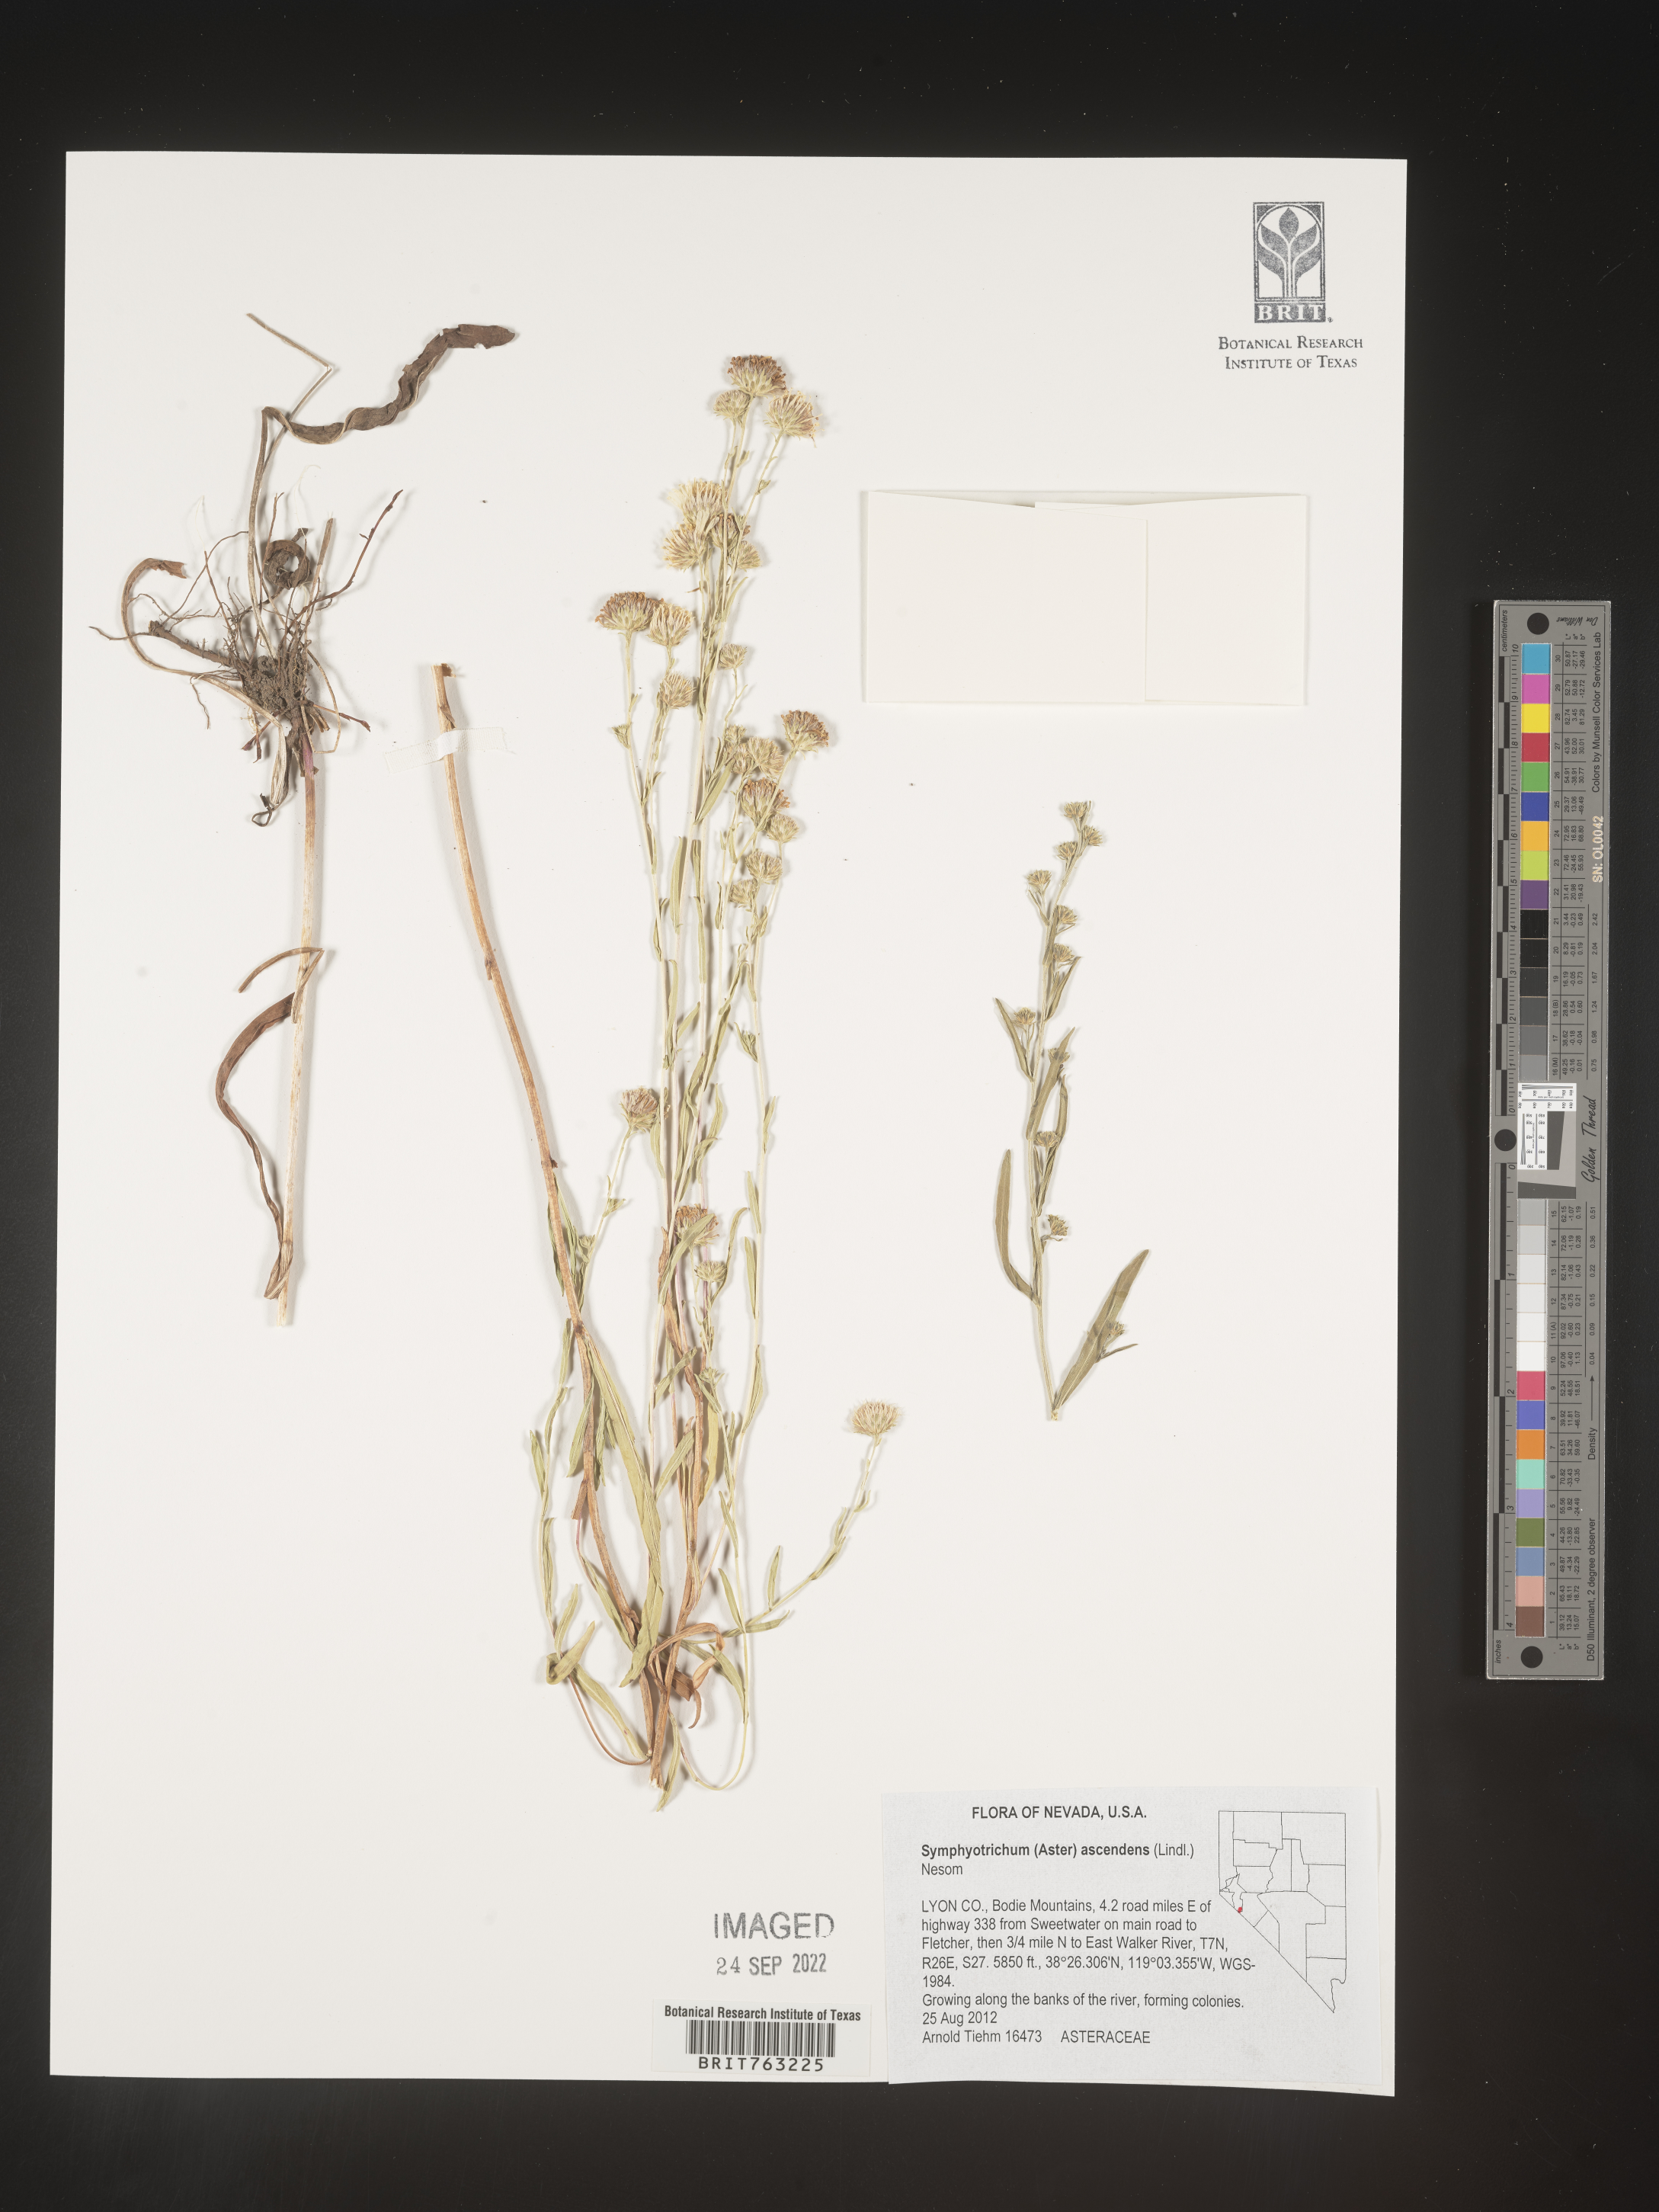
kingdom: Plantae
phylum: Tracheophyta
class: Magnoliopsida
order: Asterales
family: Asteraceae
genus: Symphyotrichum
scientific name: Symphyotrichum ascendens
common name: Intermountain aster
